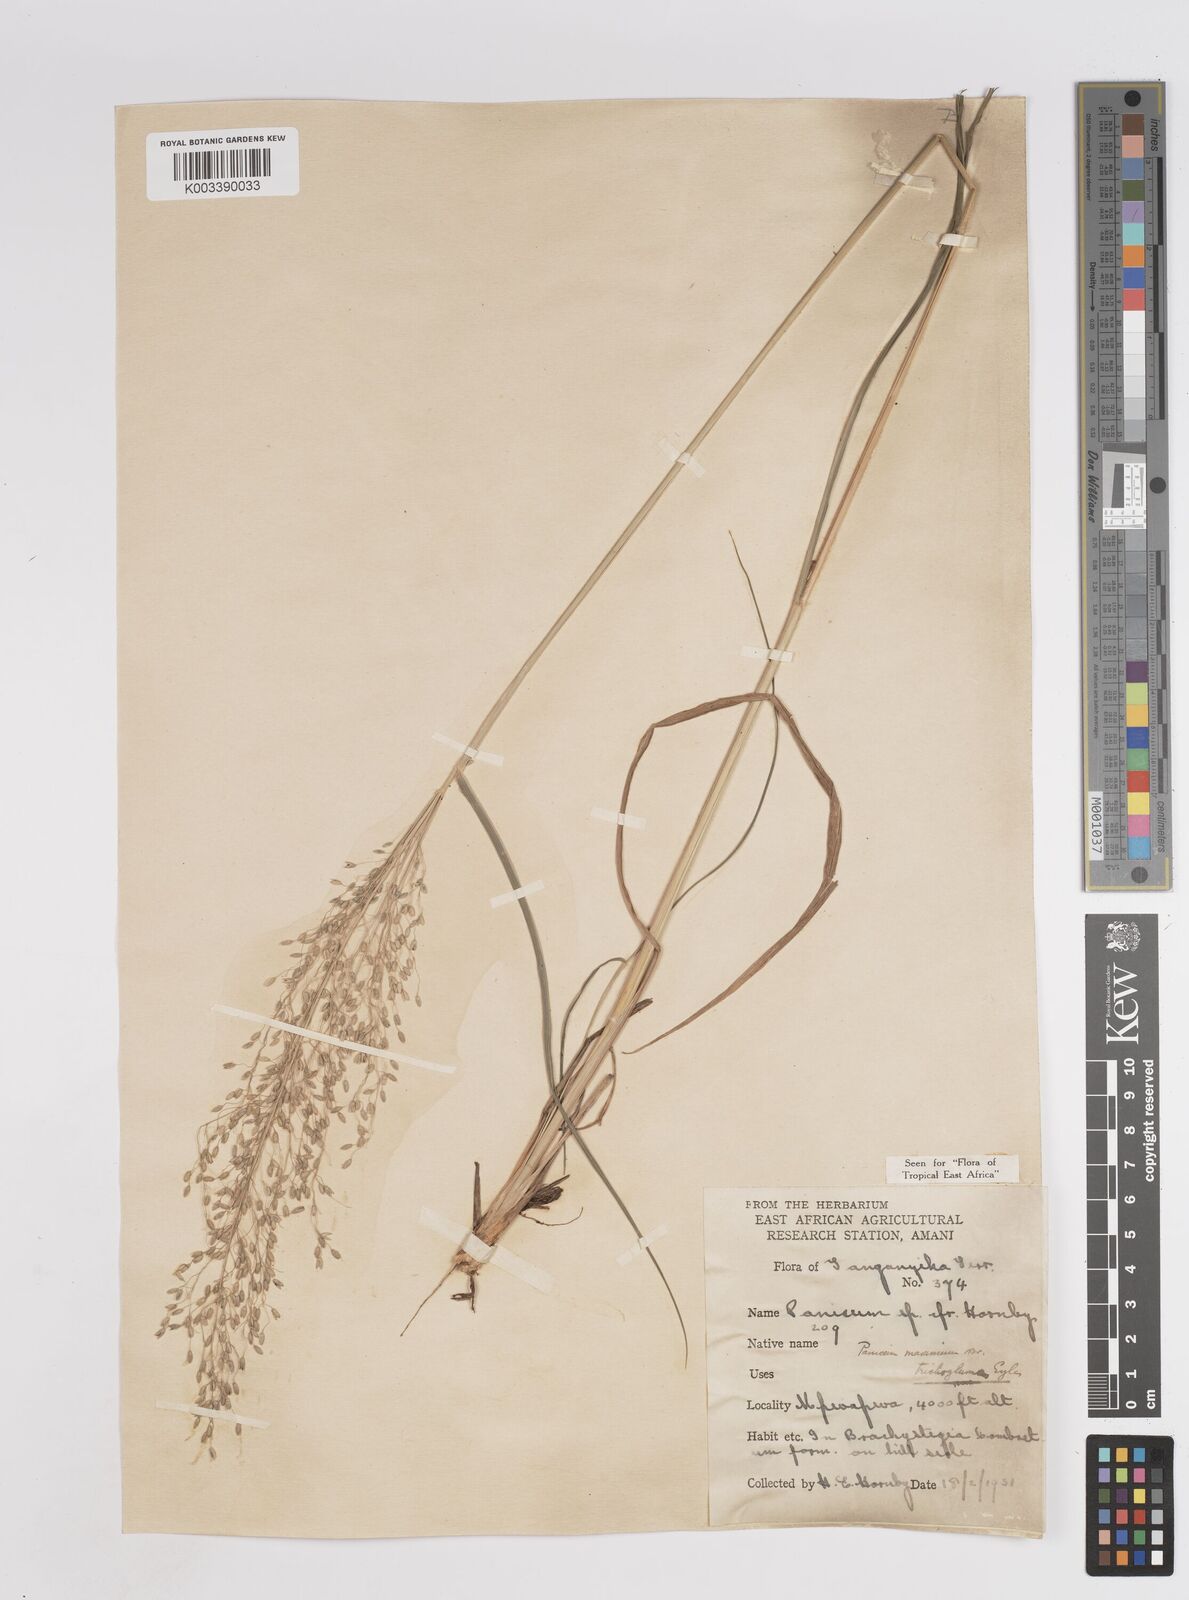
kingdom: Plantae
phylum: Tracheophyta
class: Liliopsida
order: Poales
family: Poaceae
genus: Megathyrsus
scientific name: Megathyrsus maximus
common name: Guineagrass
